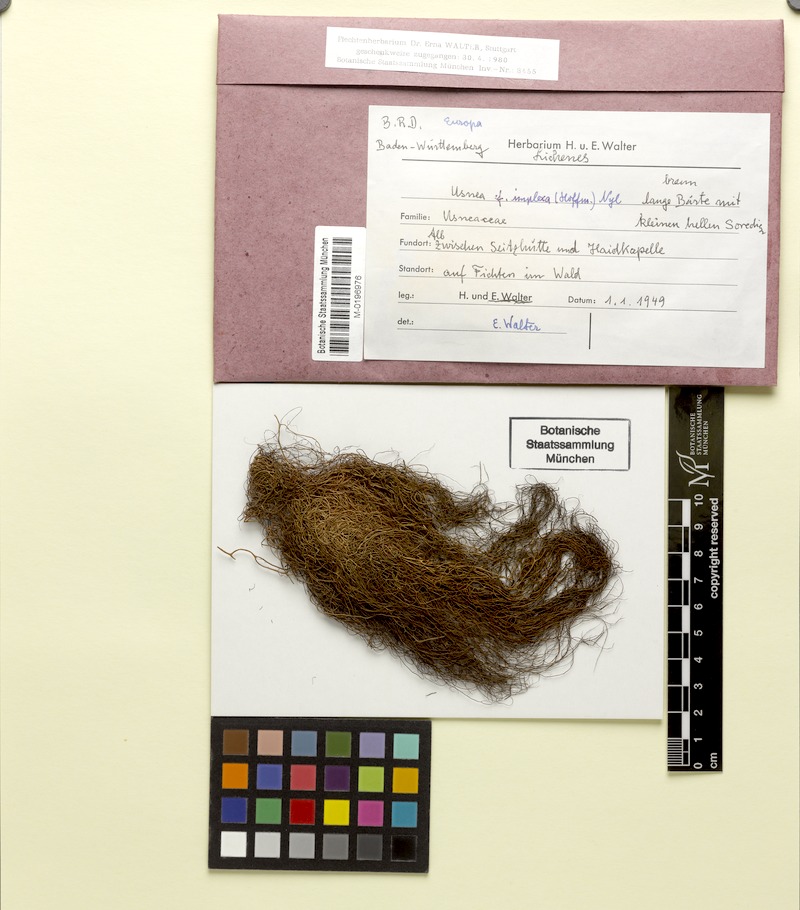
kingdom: Fungi
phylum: Ascomycota
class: Lecanoromycetes
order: Lecanorales
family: Parmeliaceae
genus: Usnea
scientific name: Usnea subimplexa
